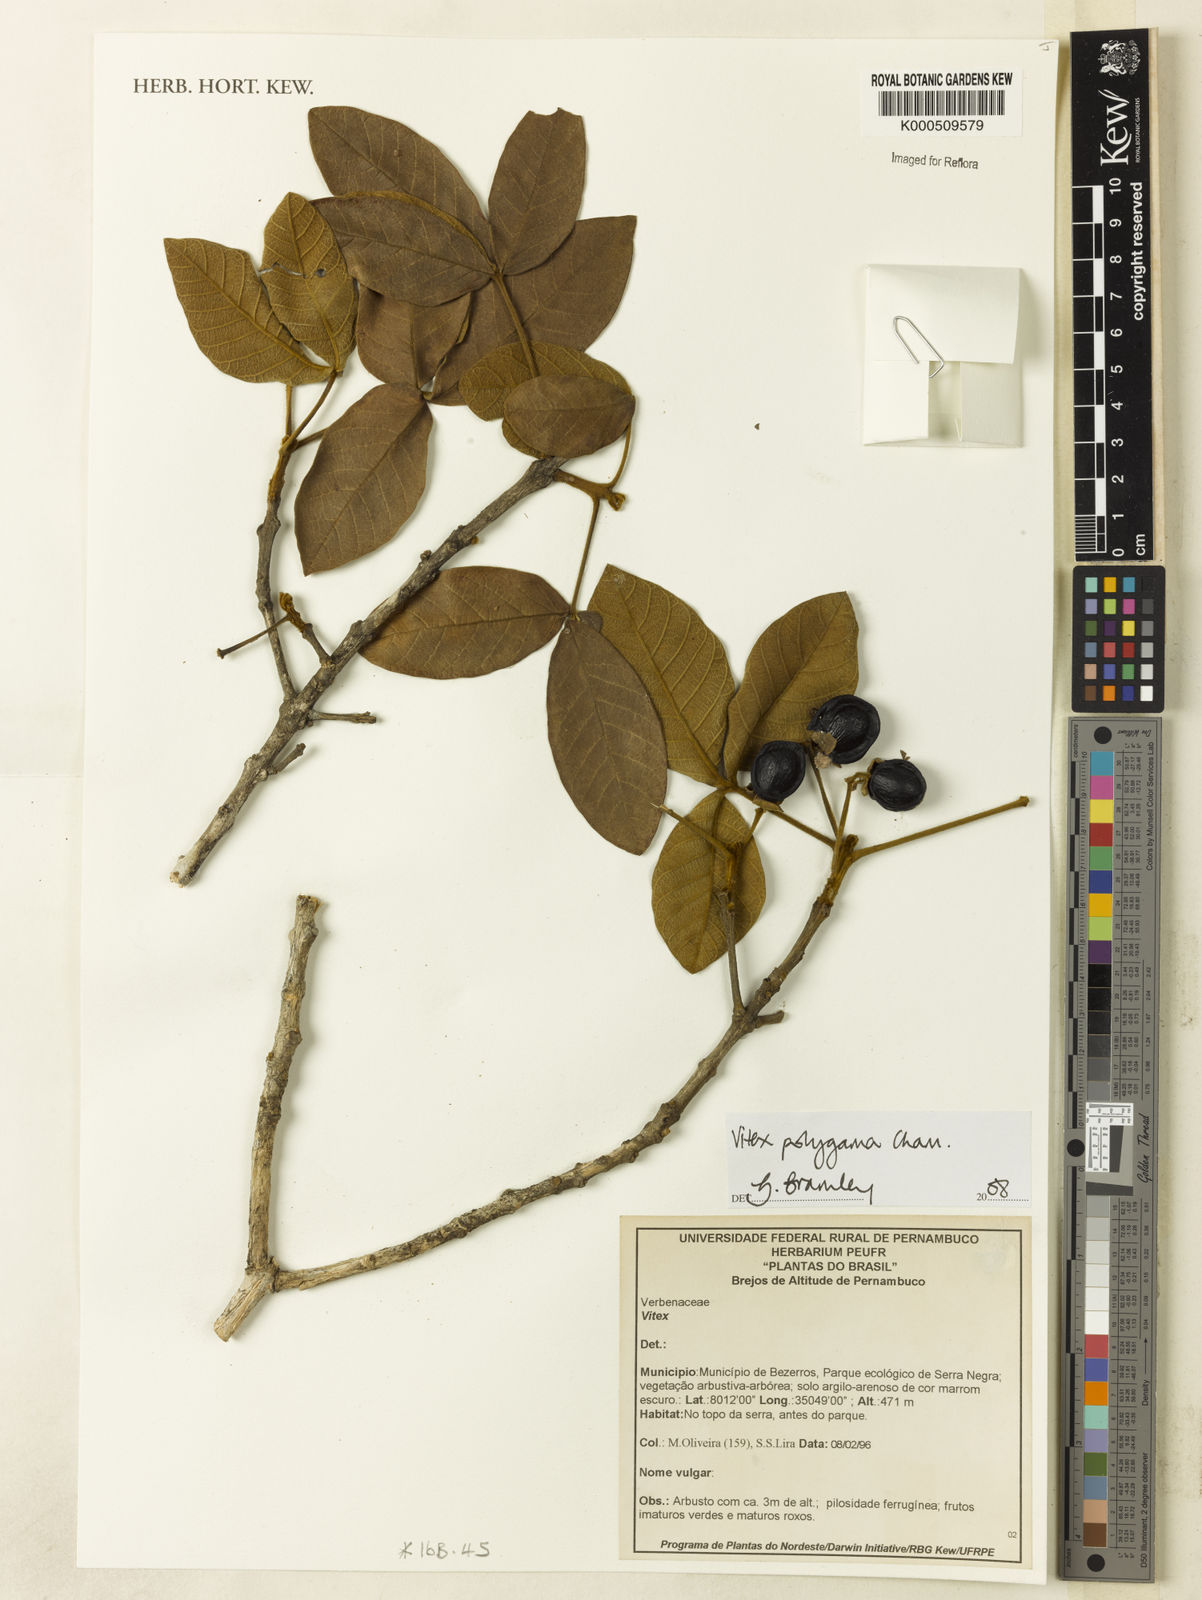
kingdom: Plantae
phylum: Tracheophyta
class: Magnoliopsida
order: Lamiales
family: Lamiaceae
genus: Vitex
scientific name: Vitex polygama
